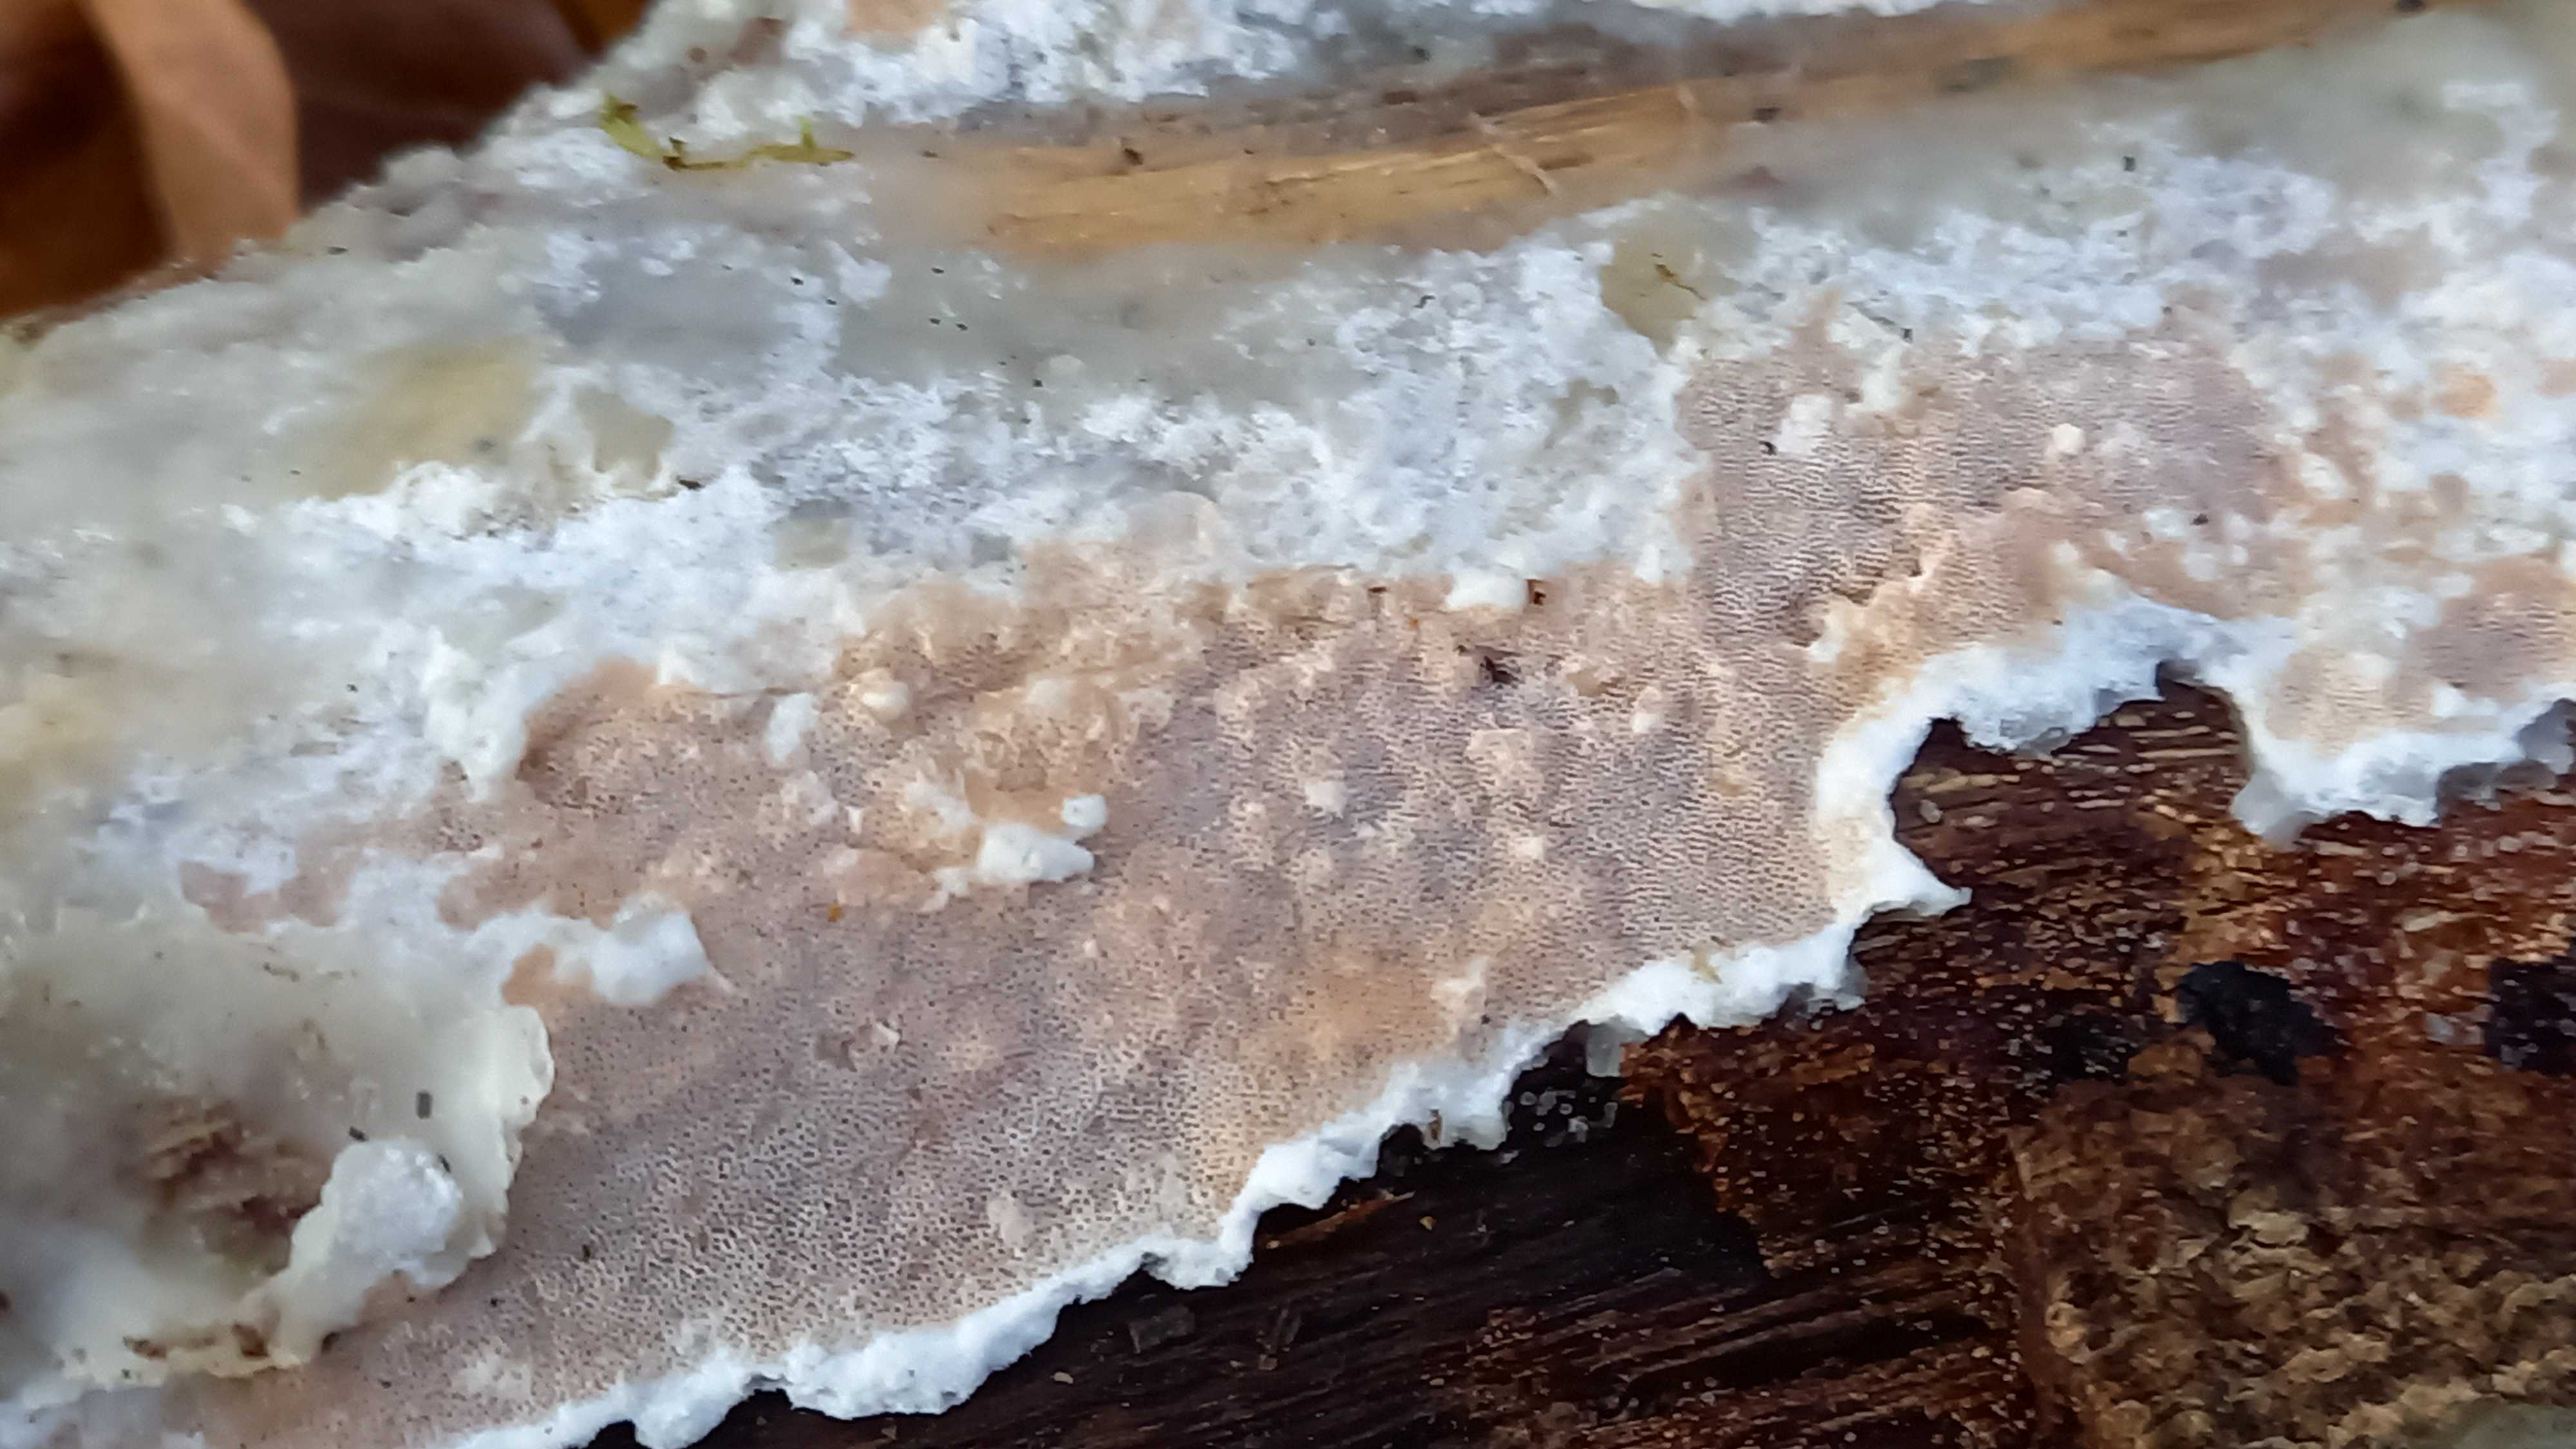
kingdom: Fungi
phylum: Basidiomycota
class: Agaricomycetes
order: Polyporales
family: Irpicaceae
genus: Vitreoporus
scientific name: Vitreoporus dichrous
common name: tofarvet foldporesvamp
